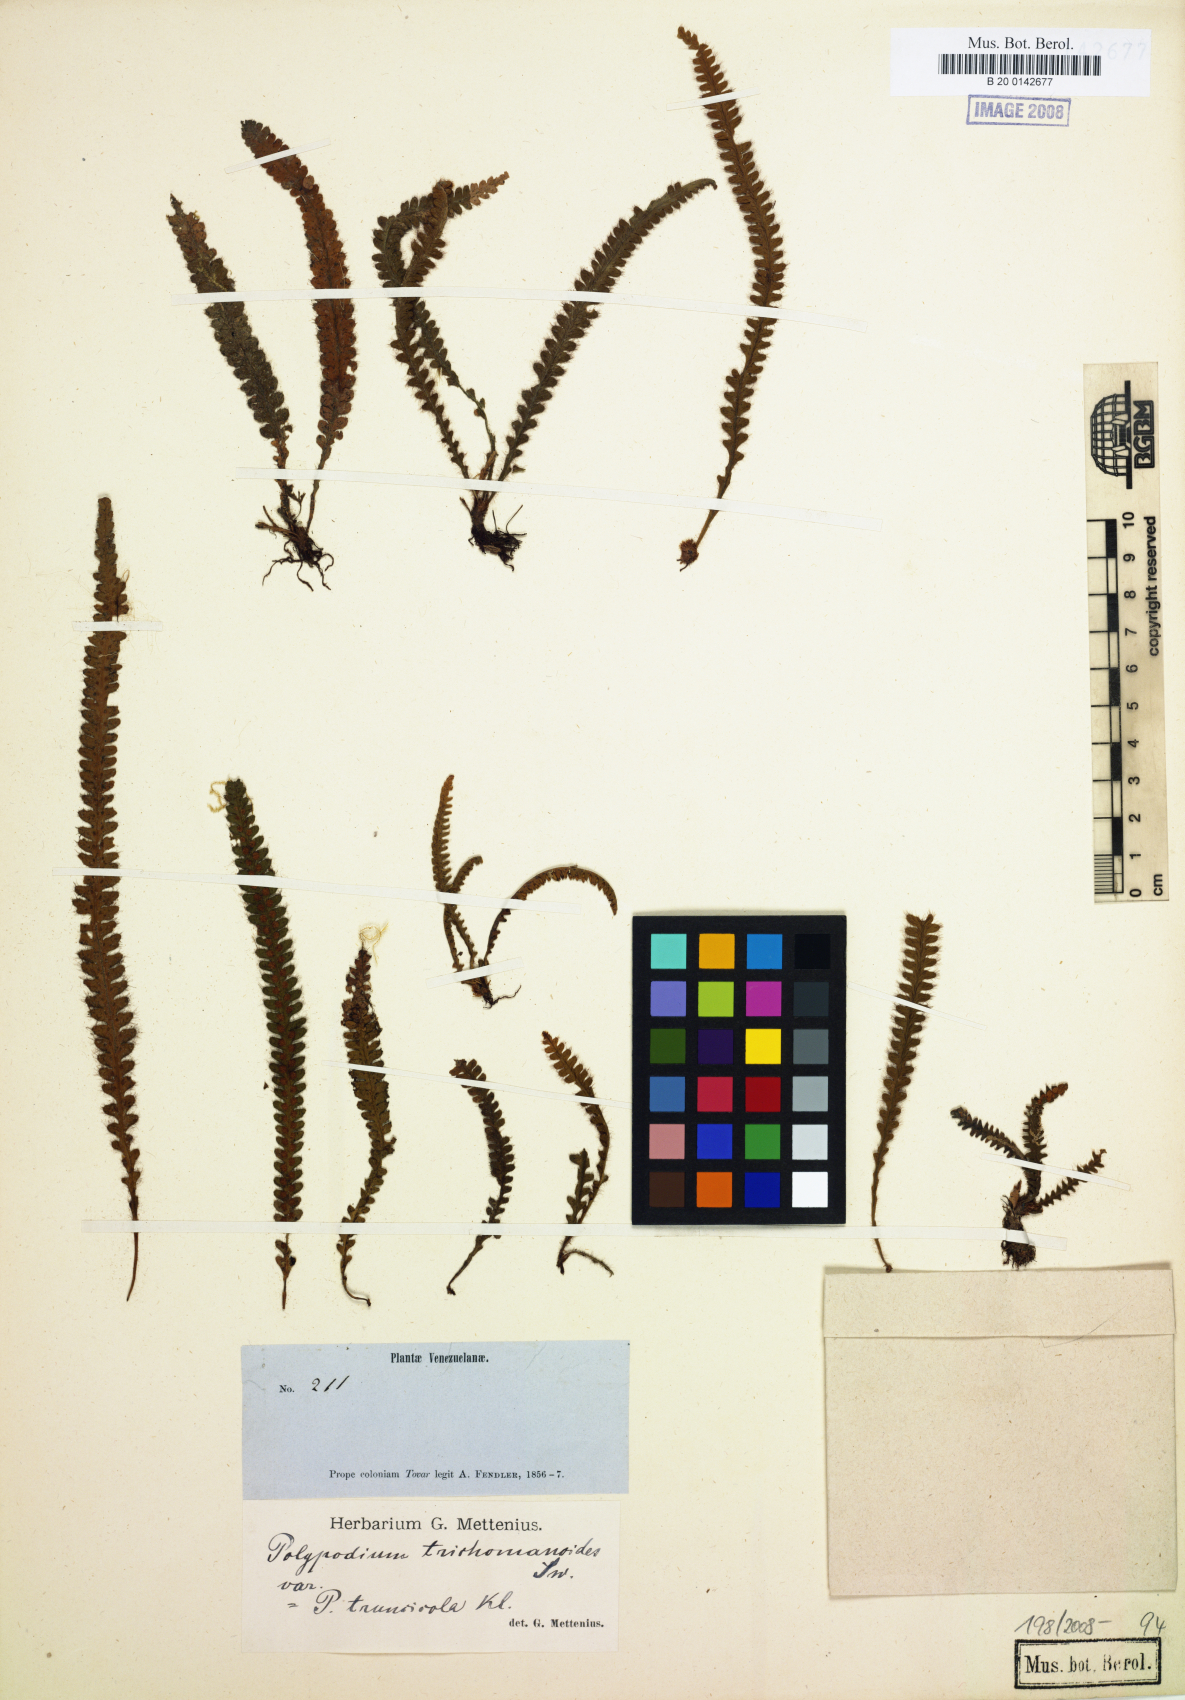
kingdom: Plantae
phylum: Tracheophyta
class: Polypodiopsida
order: Polypodiales
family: Polypodiaceae
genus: Moranopteris
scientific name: Moranopteris simplex
